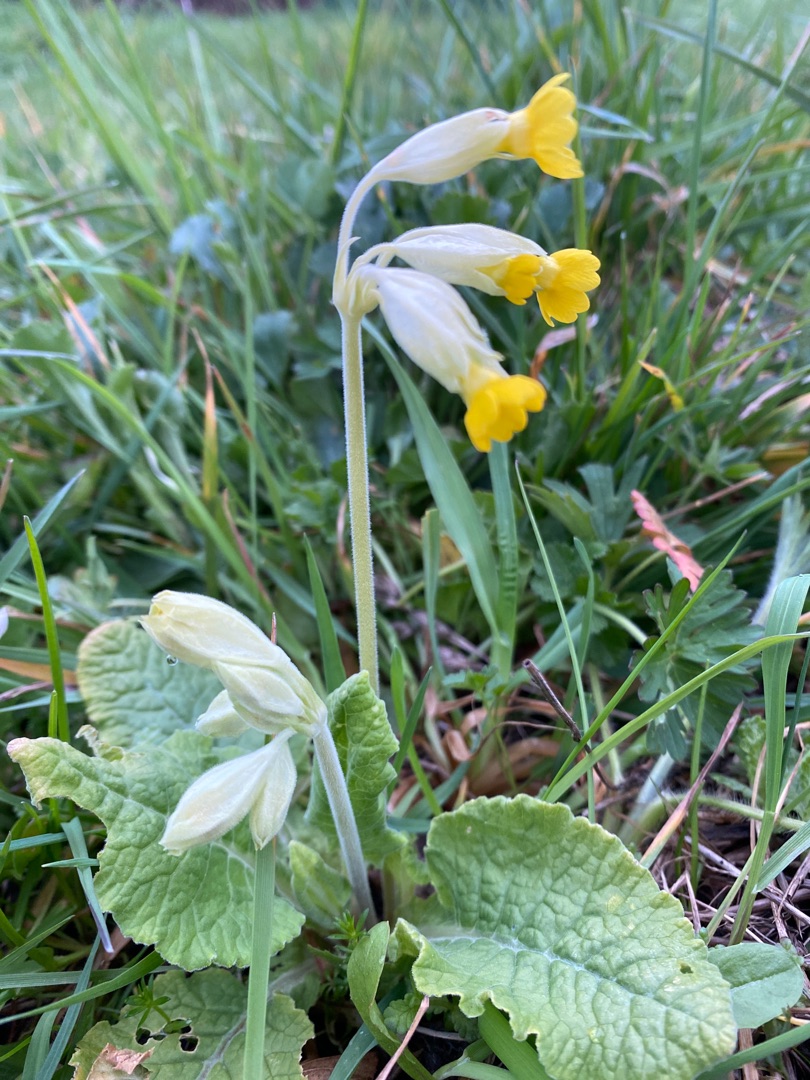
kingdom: Plantae
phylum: Tracheophyta
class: Magnoliopsida
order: Ericales
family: Primulaceae
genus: Primula
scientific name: Primula veris
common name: Hulkravet kodriver
